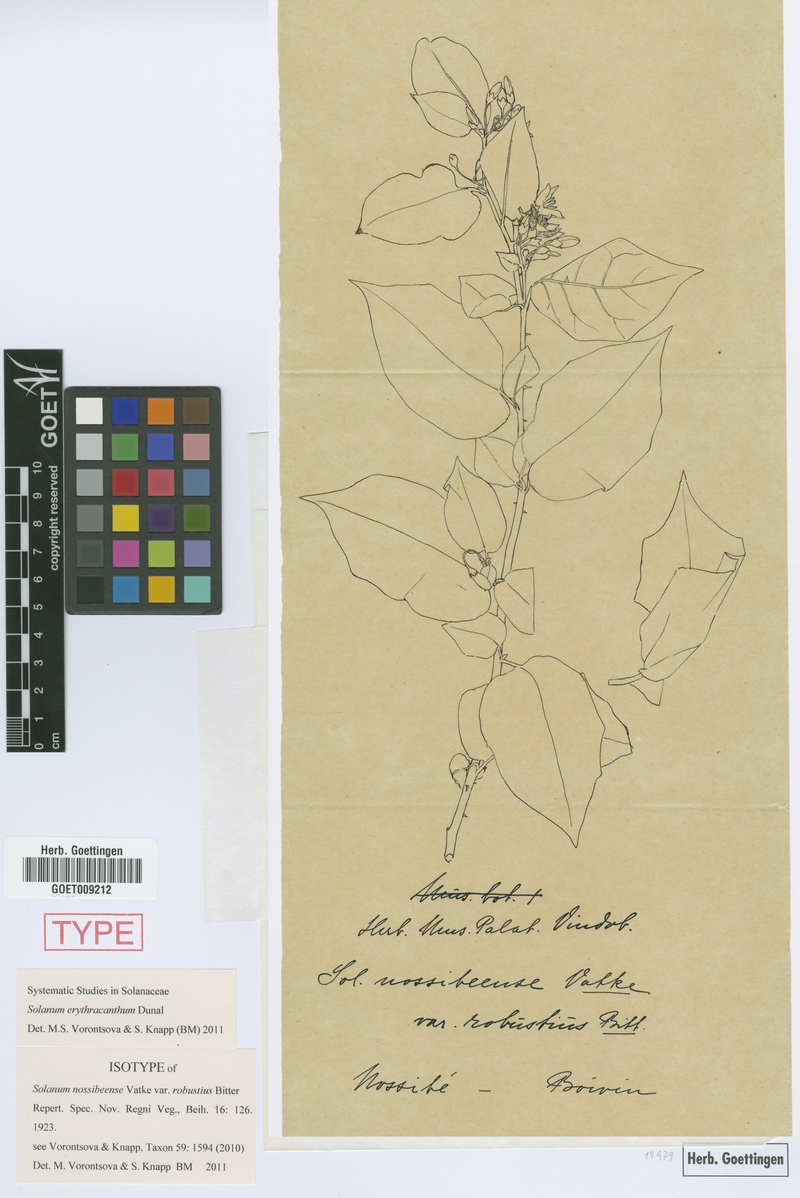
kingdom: Plantae
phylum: Tracheophyta
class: Magnoliopsida
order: Solanales
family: Solanaceae
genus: Solanum
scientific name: Solanum erythracanthum
